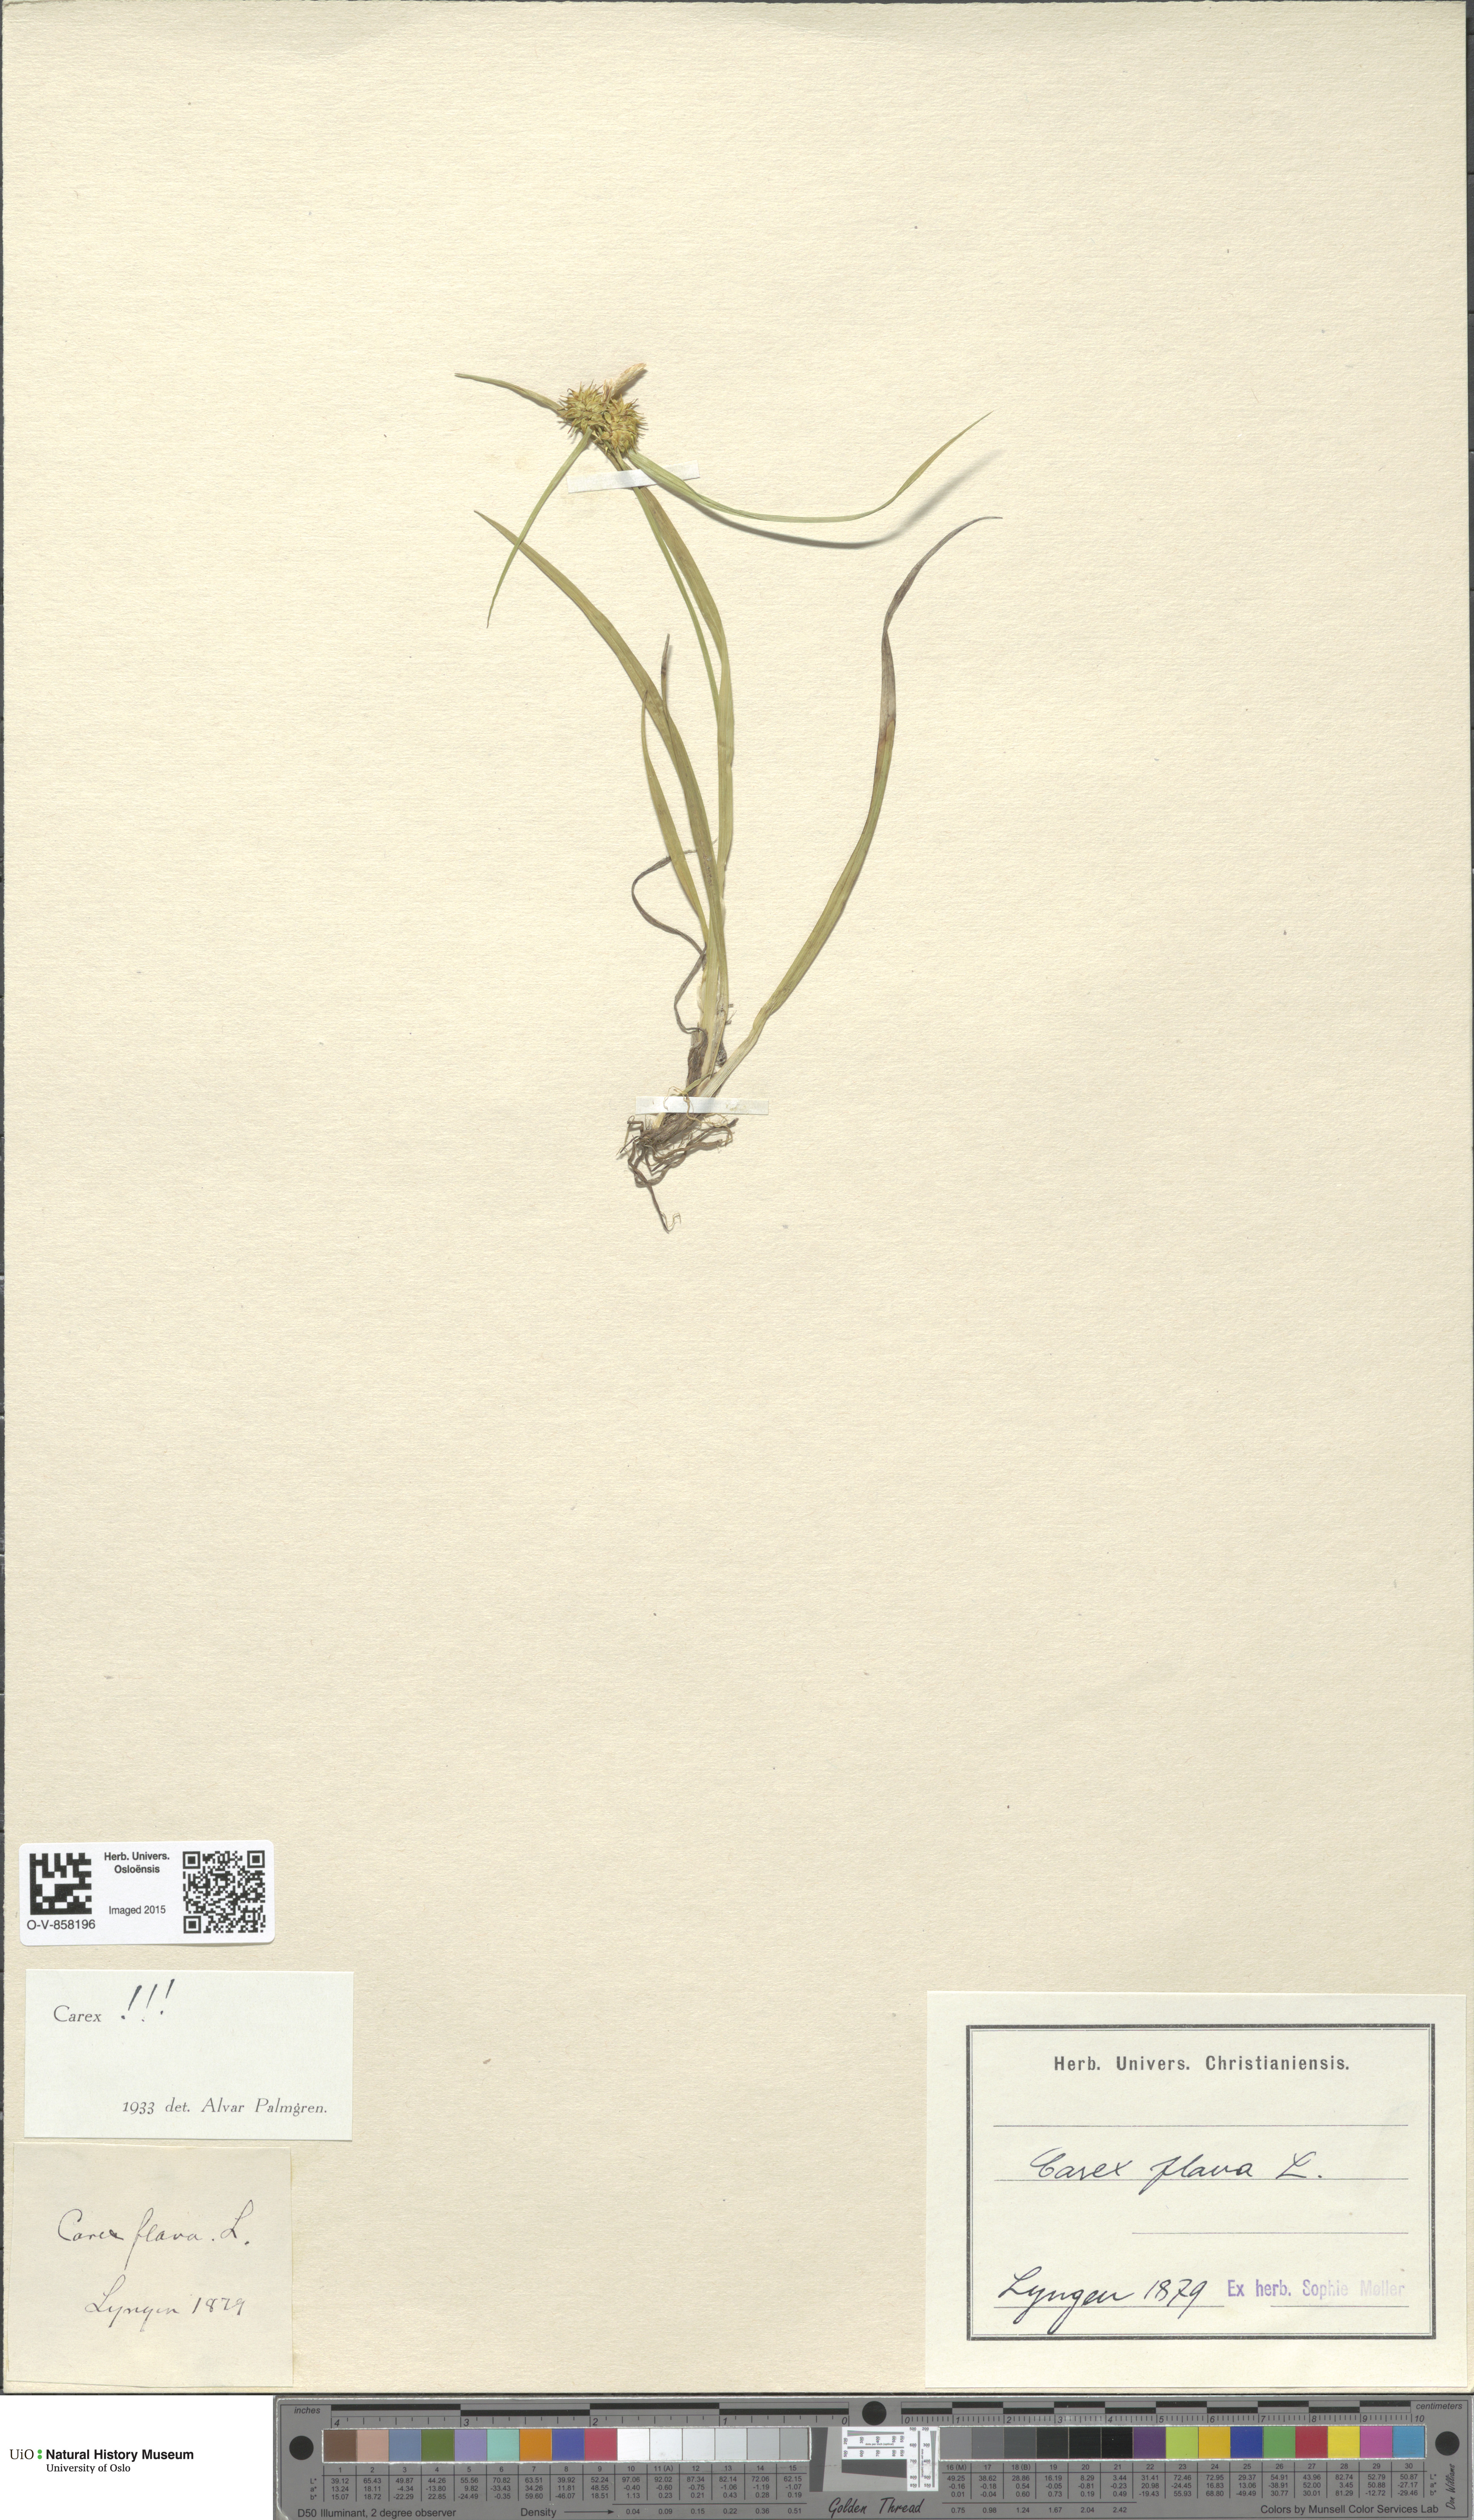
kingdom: Plantae
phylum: Tracheophyta
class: Liliopsida
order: Poales
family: Cyperaceae
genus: Carex
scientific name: Carex flava
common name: Large yellow-sedge
